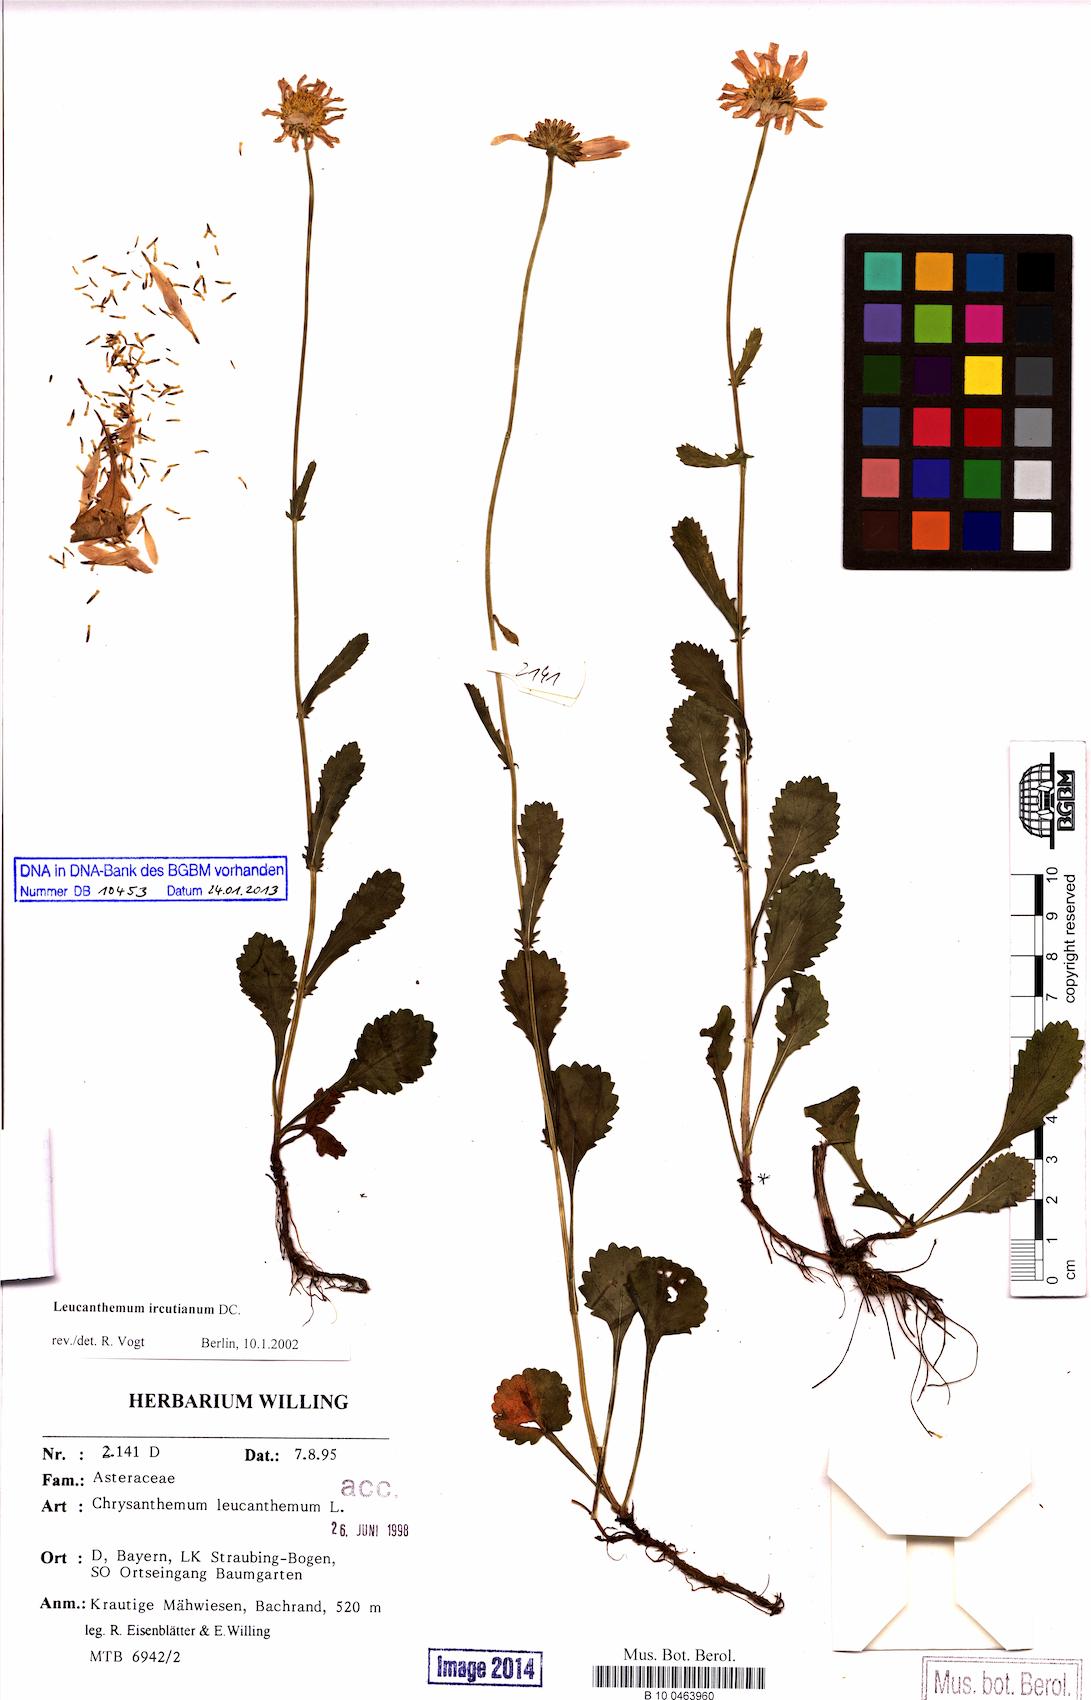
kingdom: Plantae
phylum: Tracheophyta
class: Magnoliopsida
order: Asterales
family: Asteraceae
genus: Leucanthemum
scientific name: Leucanthemum ircutianum
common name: Daisy
